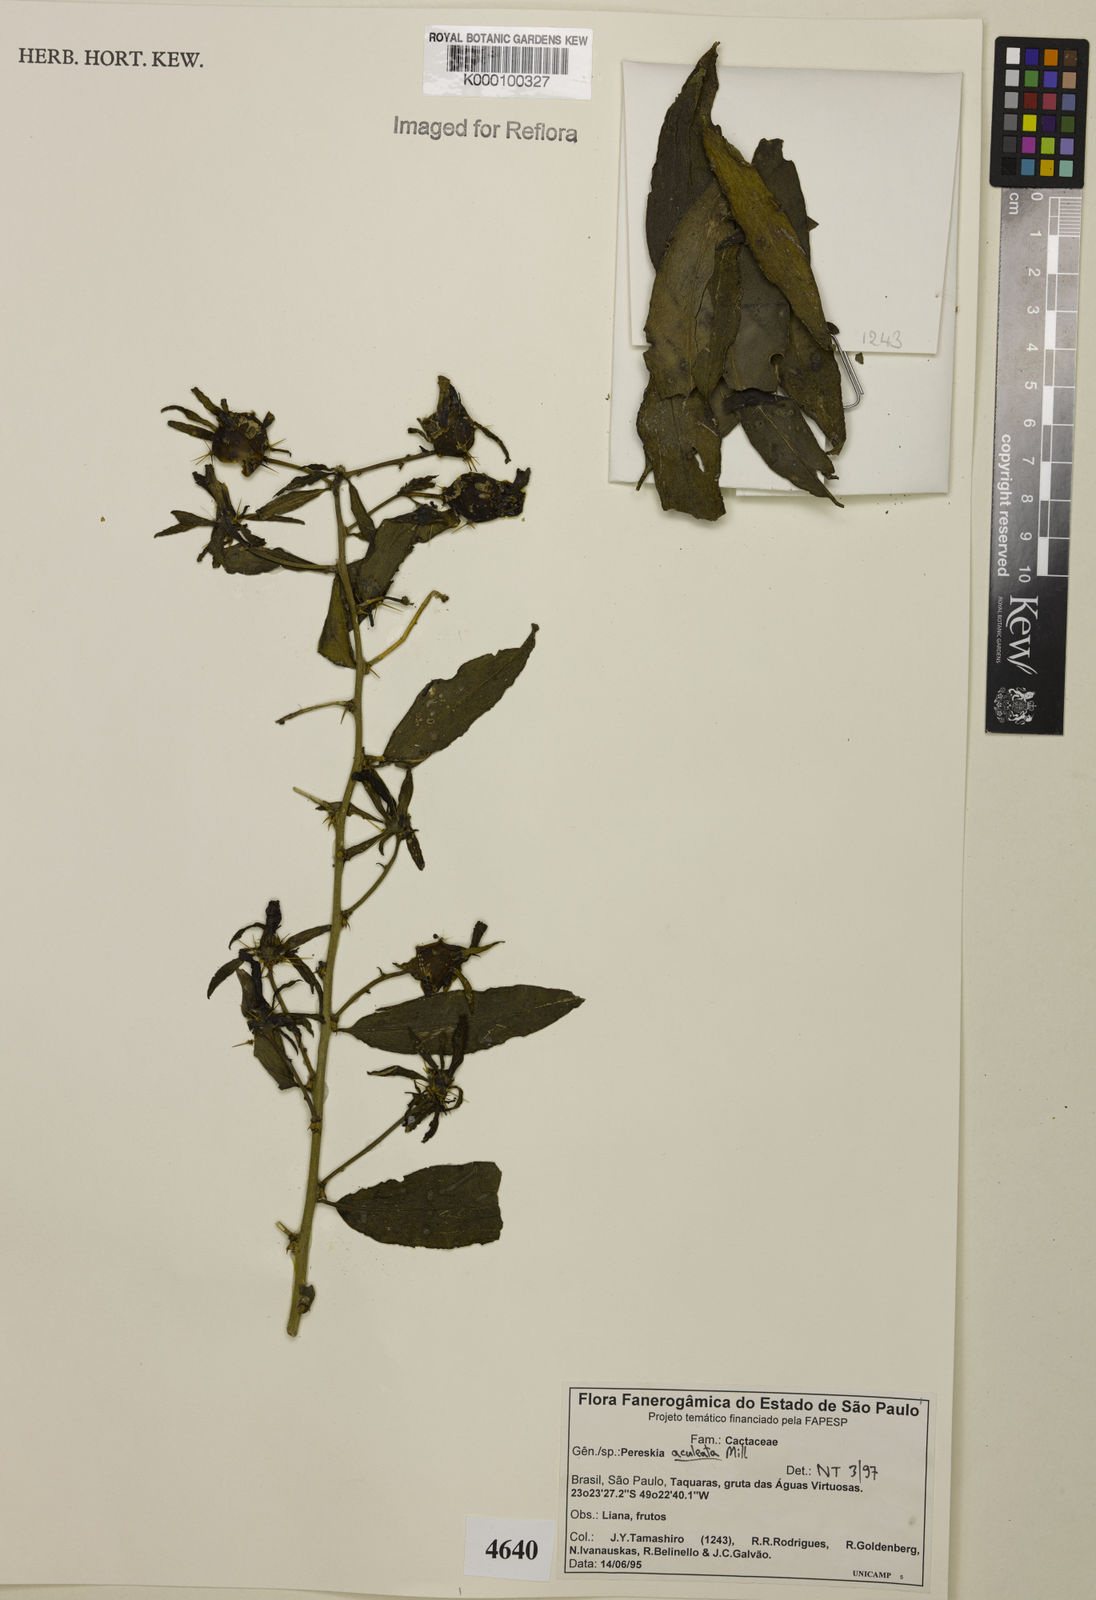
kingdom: Plantae
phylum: Tracheophyta
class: Magnoliopsida
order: Caryophyllales
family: Cactaceae
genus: Pereskia
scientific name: Pereskia aculeata
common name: Barbados gooseberry
